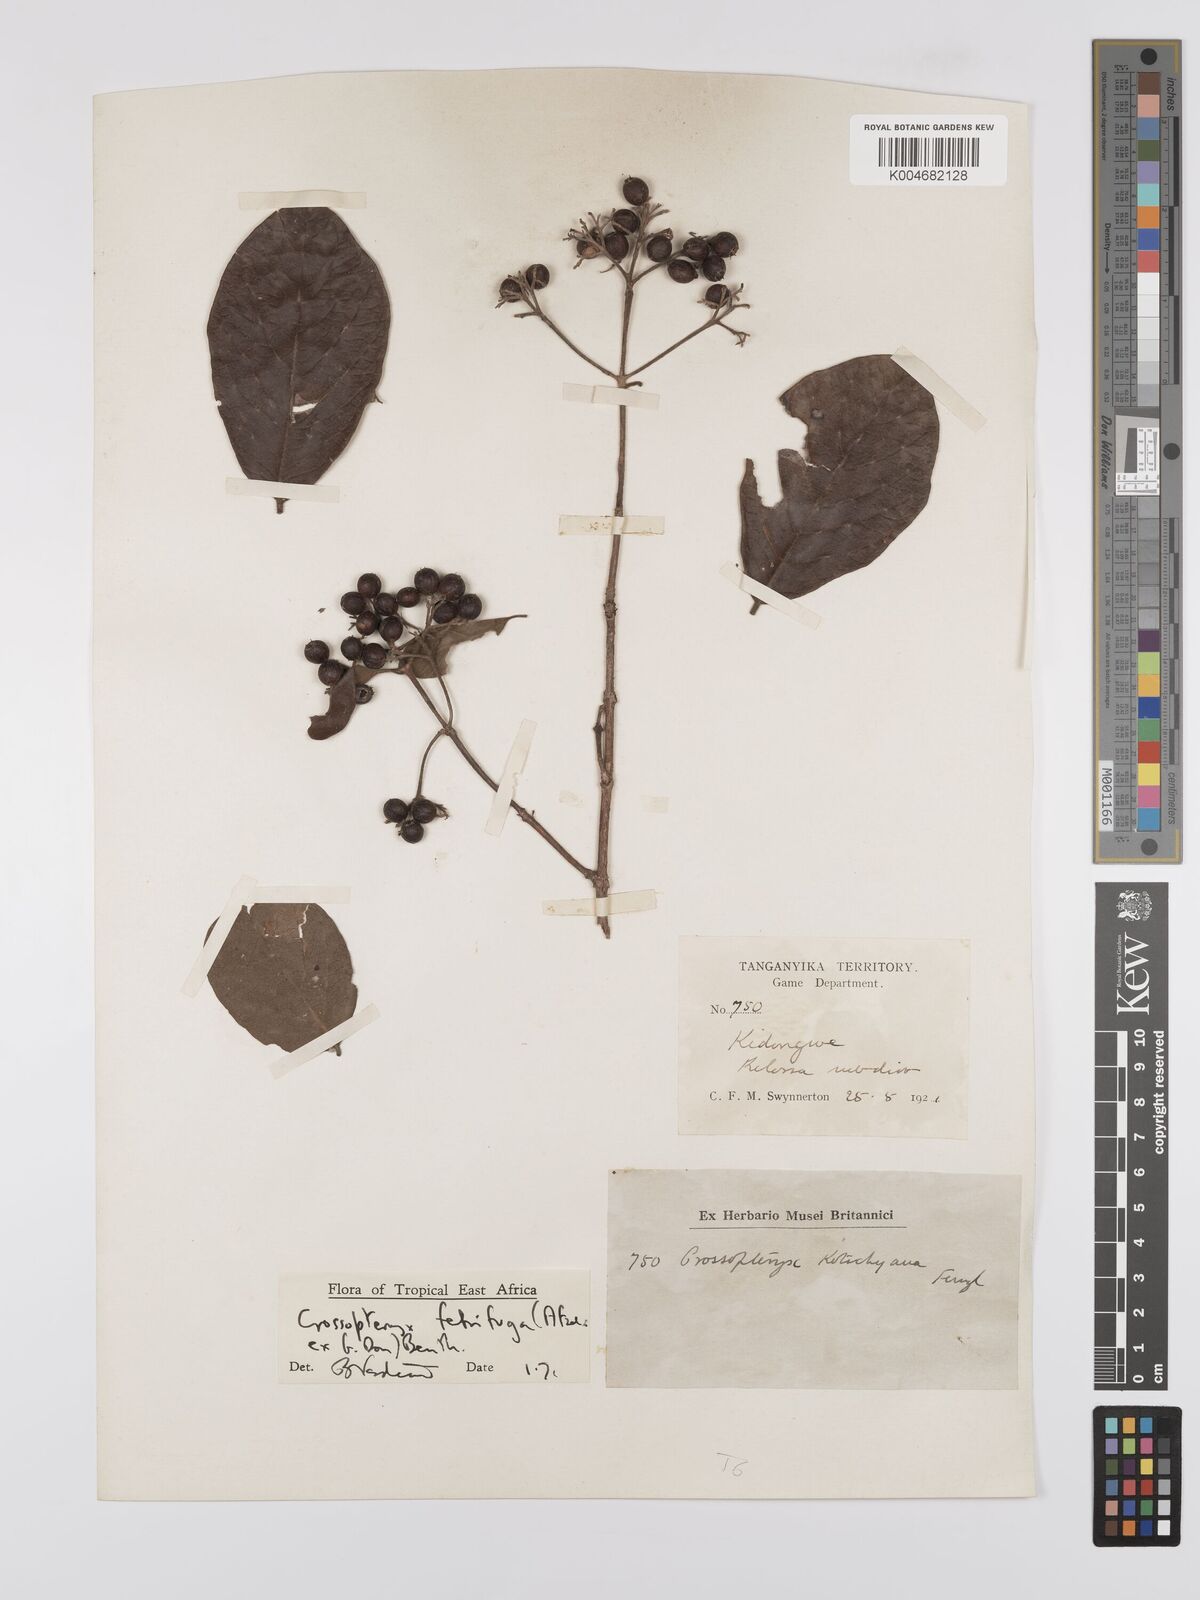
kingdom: Plantae
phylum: Tracheophyta
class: Magnoliopsida
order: Gentianales
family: Rubiaceae
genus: Crossopteryx
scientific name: Crossopteryx febrifuga
